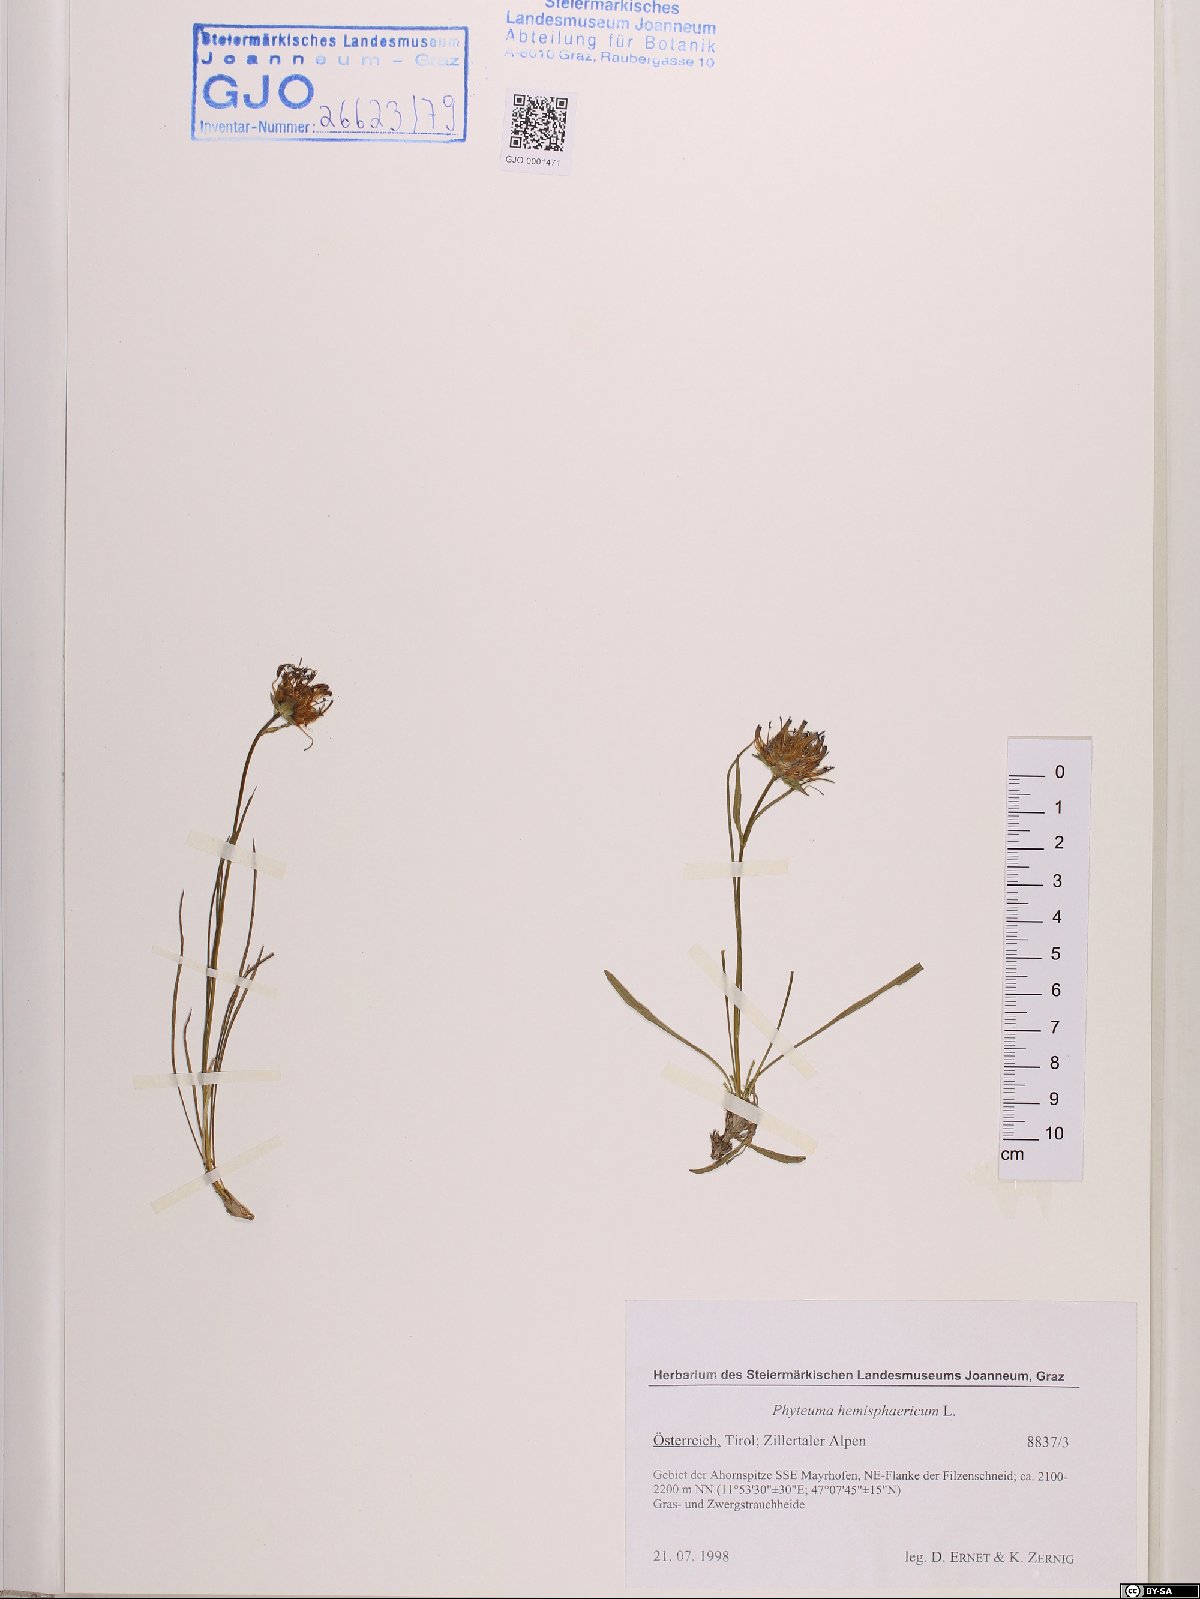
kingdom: Plantae
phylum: Tracheophyta
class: Magnoliopsida
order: Asterales
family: Campanulaceae
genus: Phyteuma
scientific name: Phyteuma hemisphaericum
